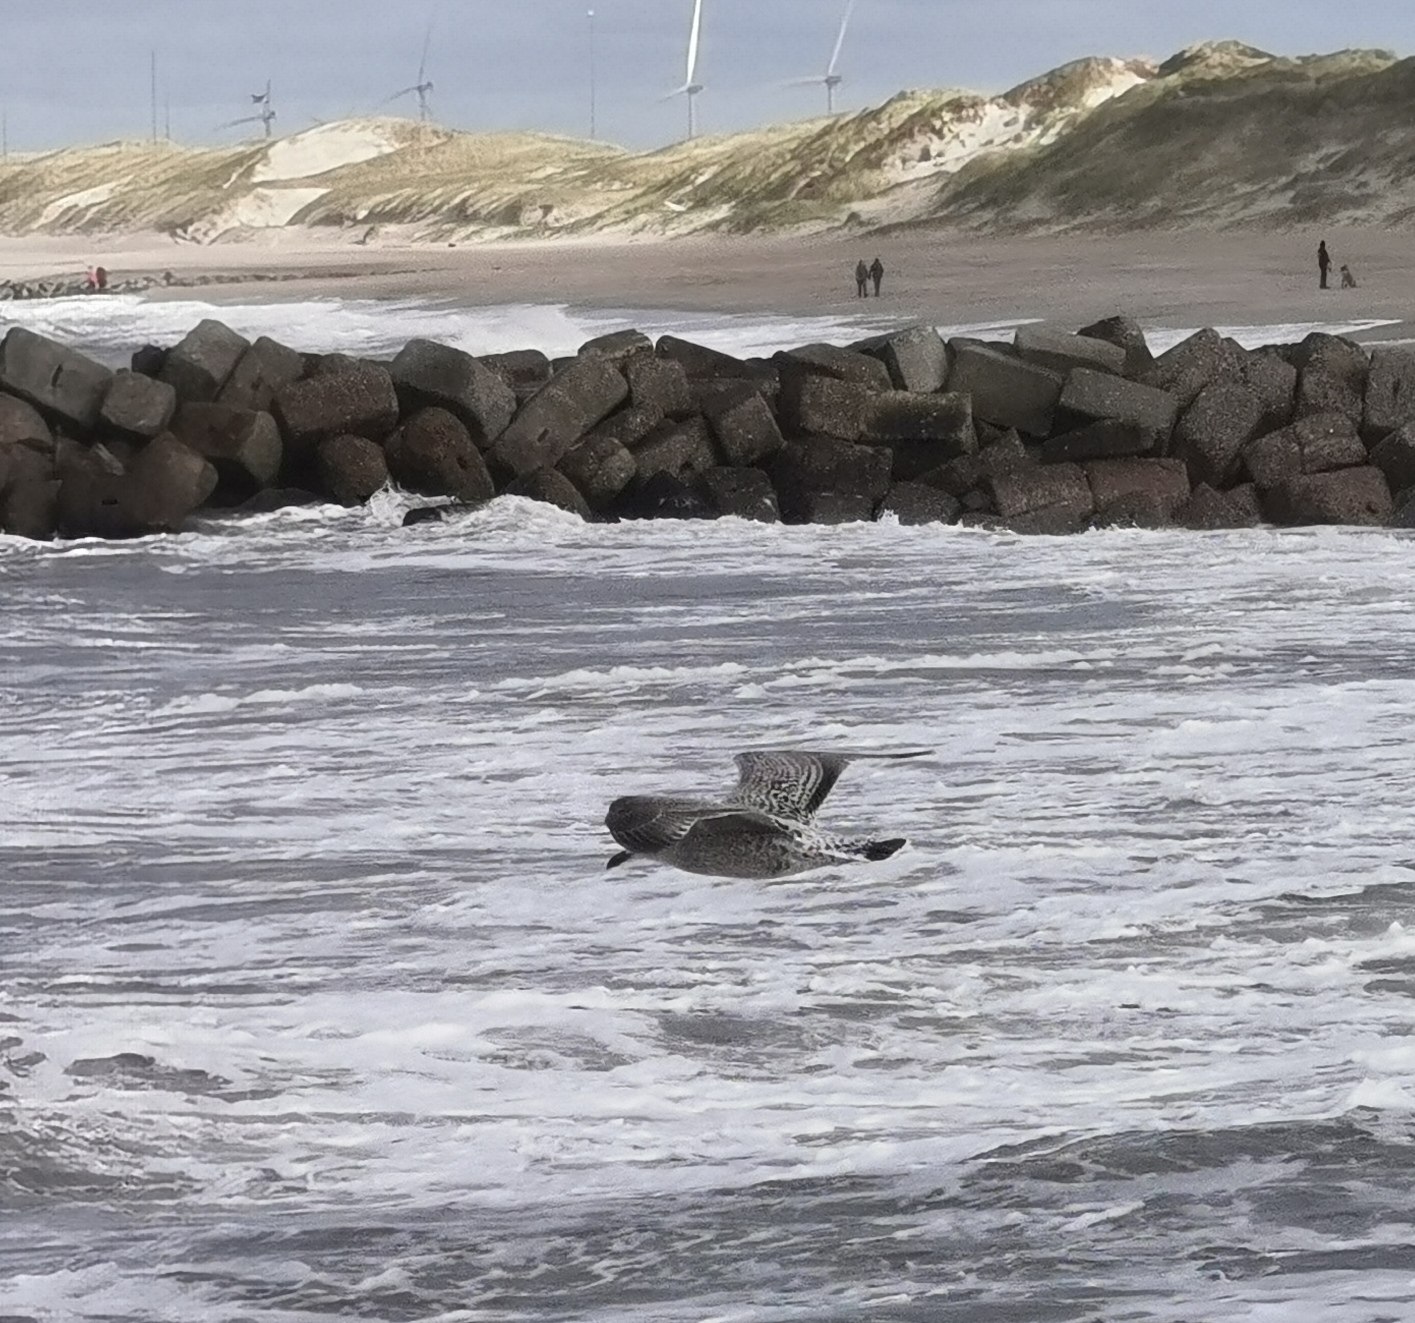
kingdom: Animalia
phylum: Chordata
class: Aves
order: Charadriiformes
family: Laridae
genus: Larus
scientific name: Larus argentatus
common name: Sølvmåge
